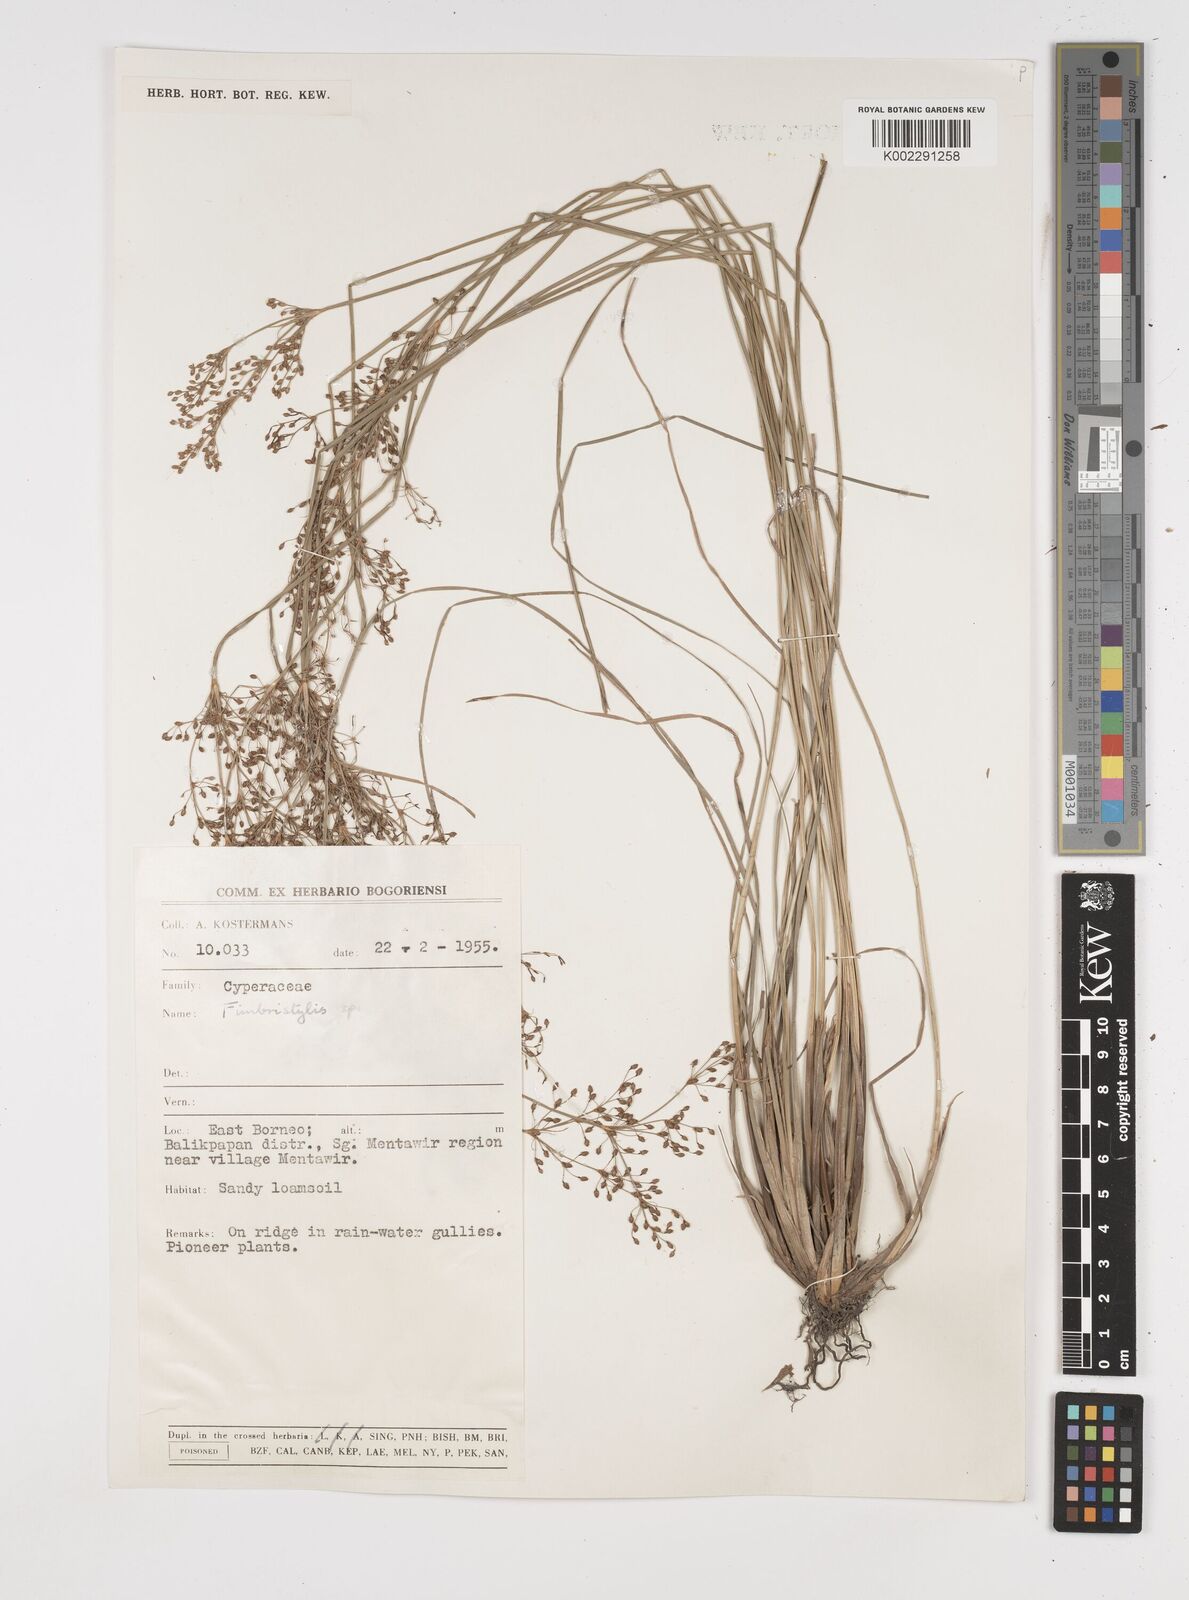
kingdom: Plantae
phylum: Tracheophyta
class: Liliopsida
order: Poales
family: Cyperaceae
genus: Fimbristylis
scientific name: Fimbristylis
